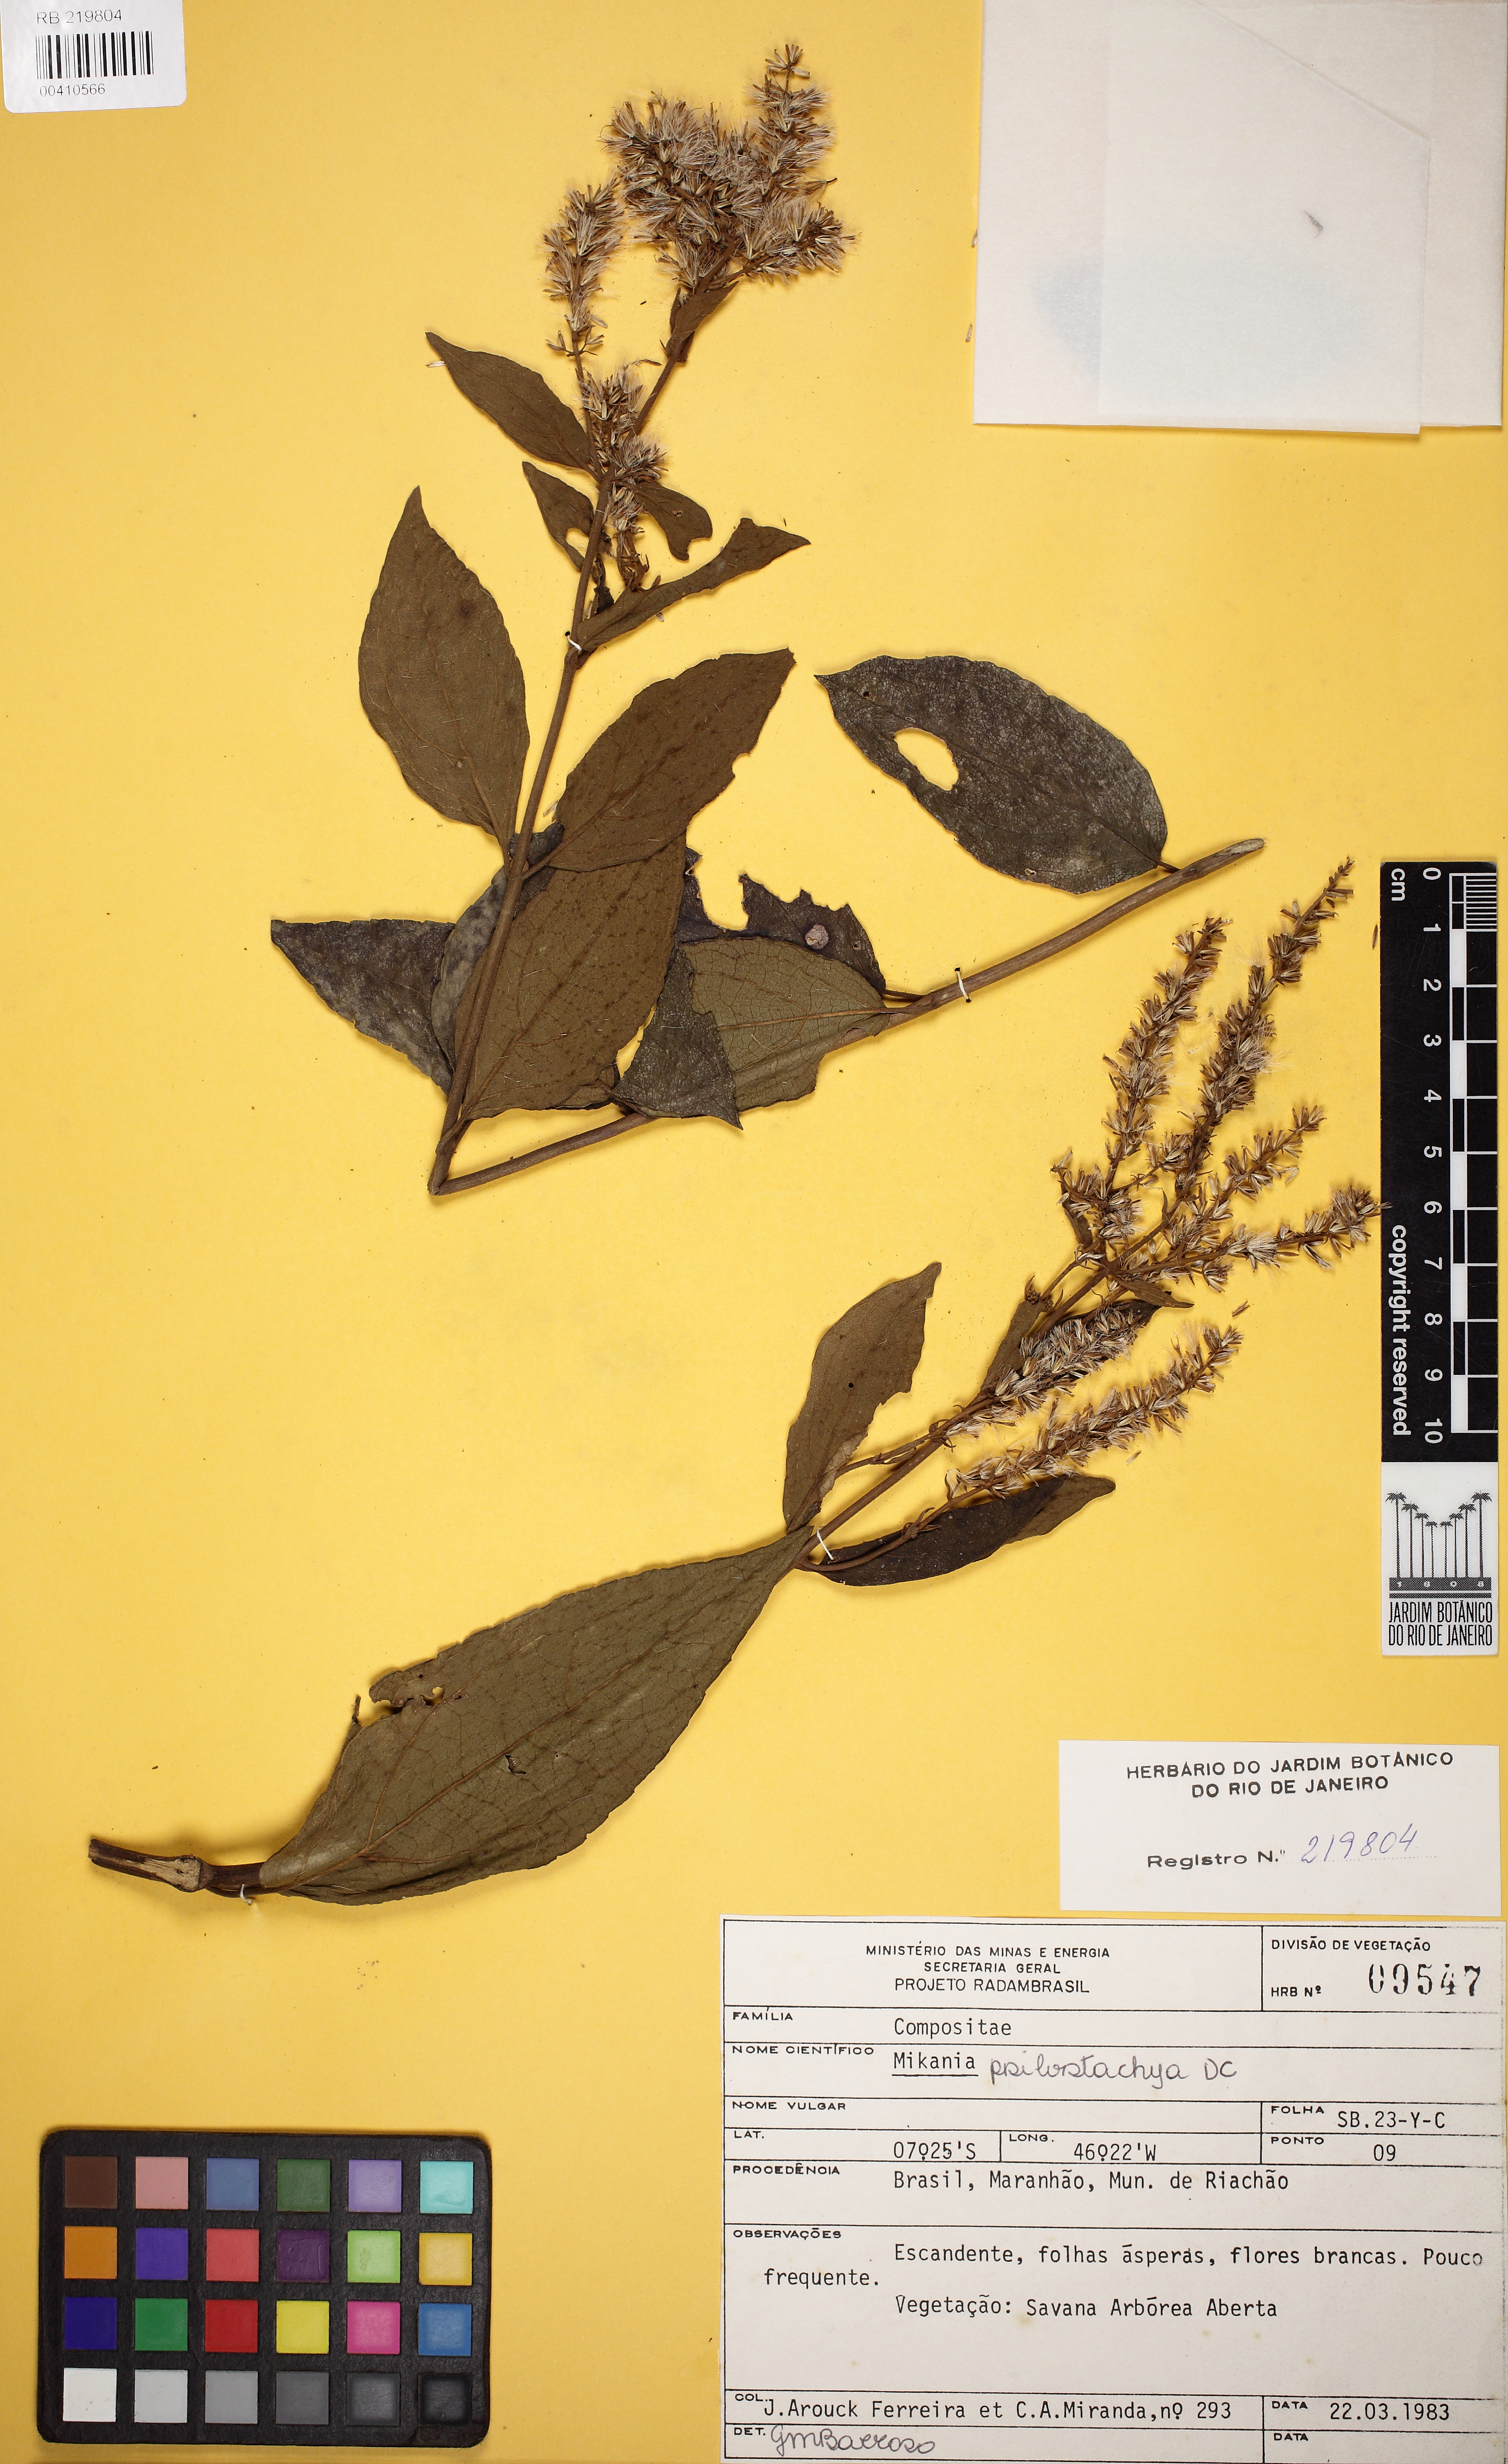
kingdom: Plantae
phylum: Tracheophyta
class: Magnoliopsida
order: Asterales
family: Asteraceae
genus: Mikania
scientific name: Mikania psilostachya
